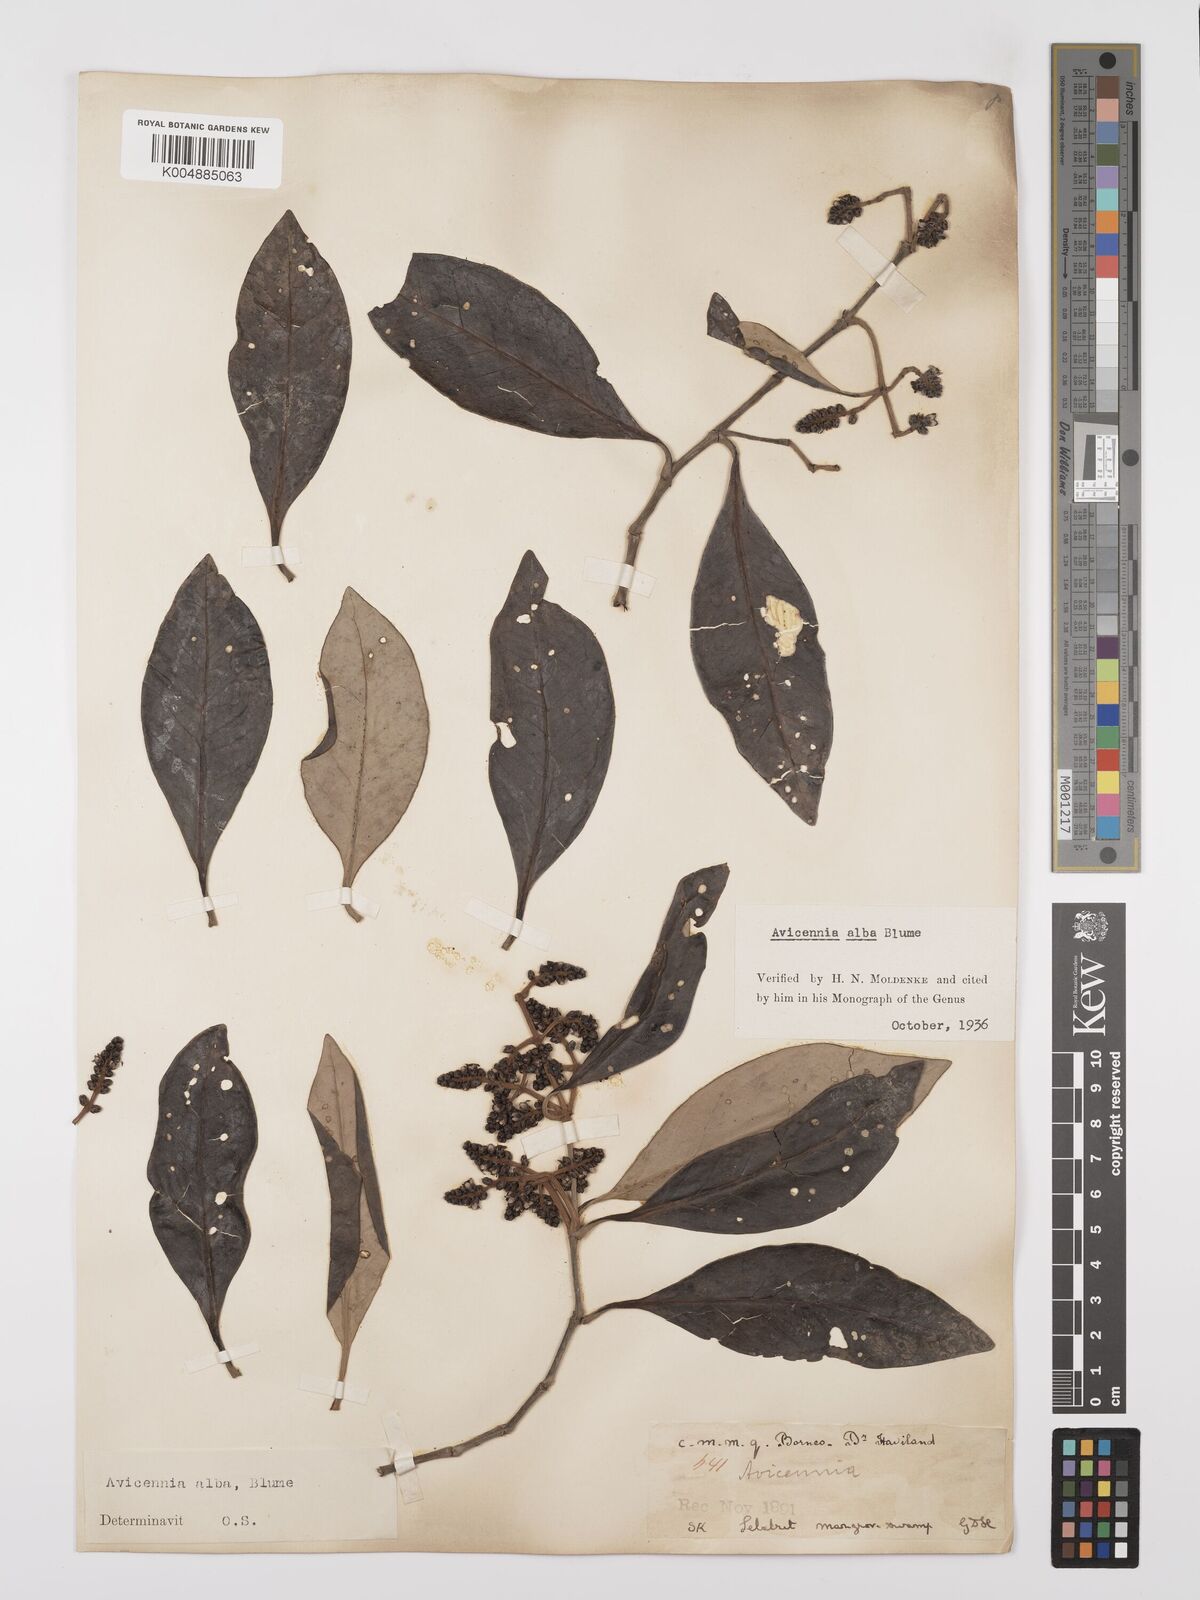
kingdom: Plantae
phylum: Tracheophyta
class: Magnoliopsida
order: Lamiales
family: Acanthaceae
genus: Avicennia
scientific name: Avicennia alba
